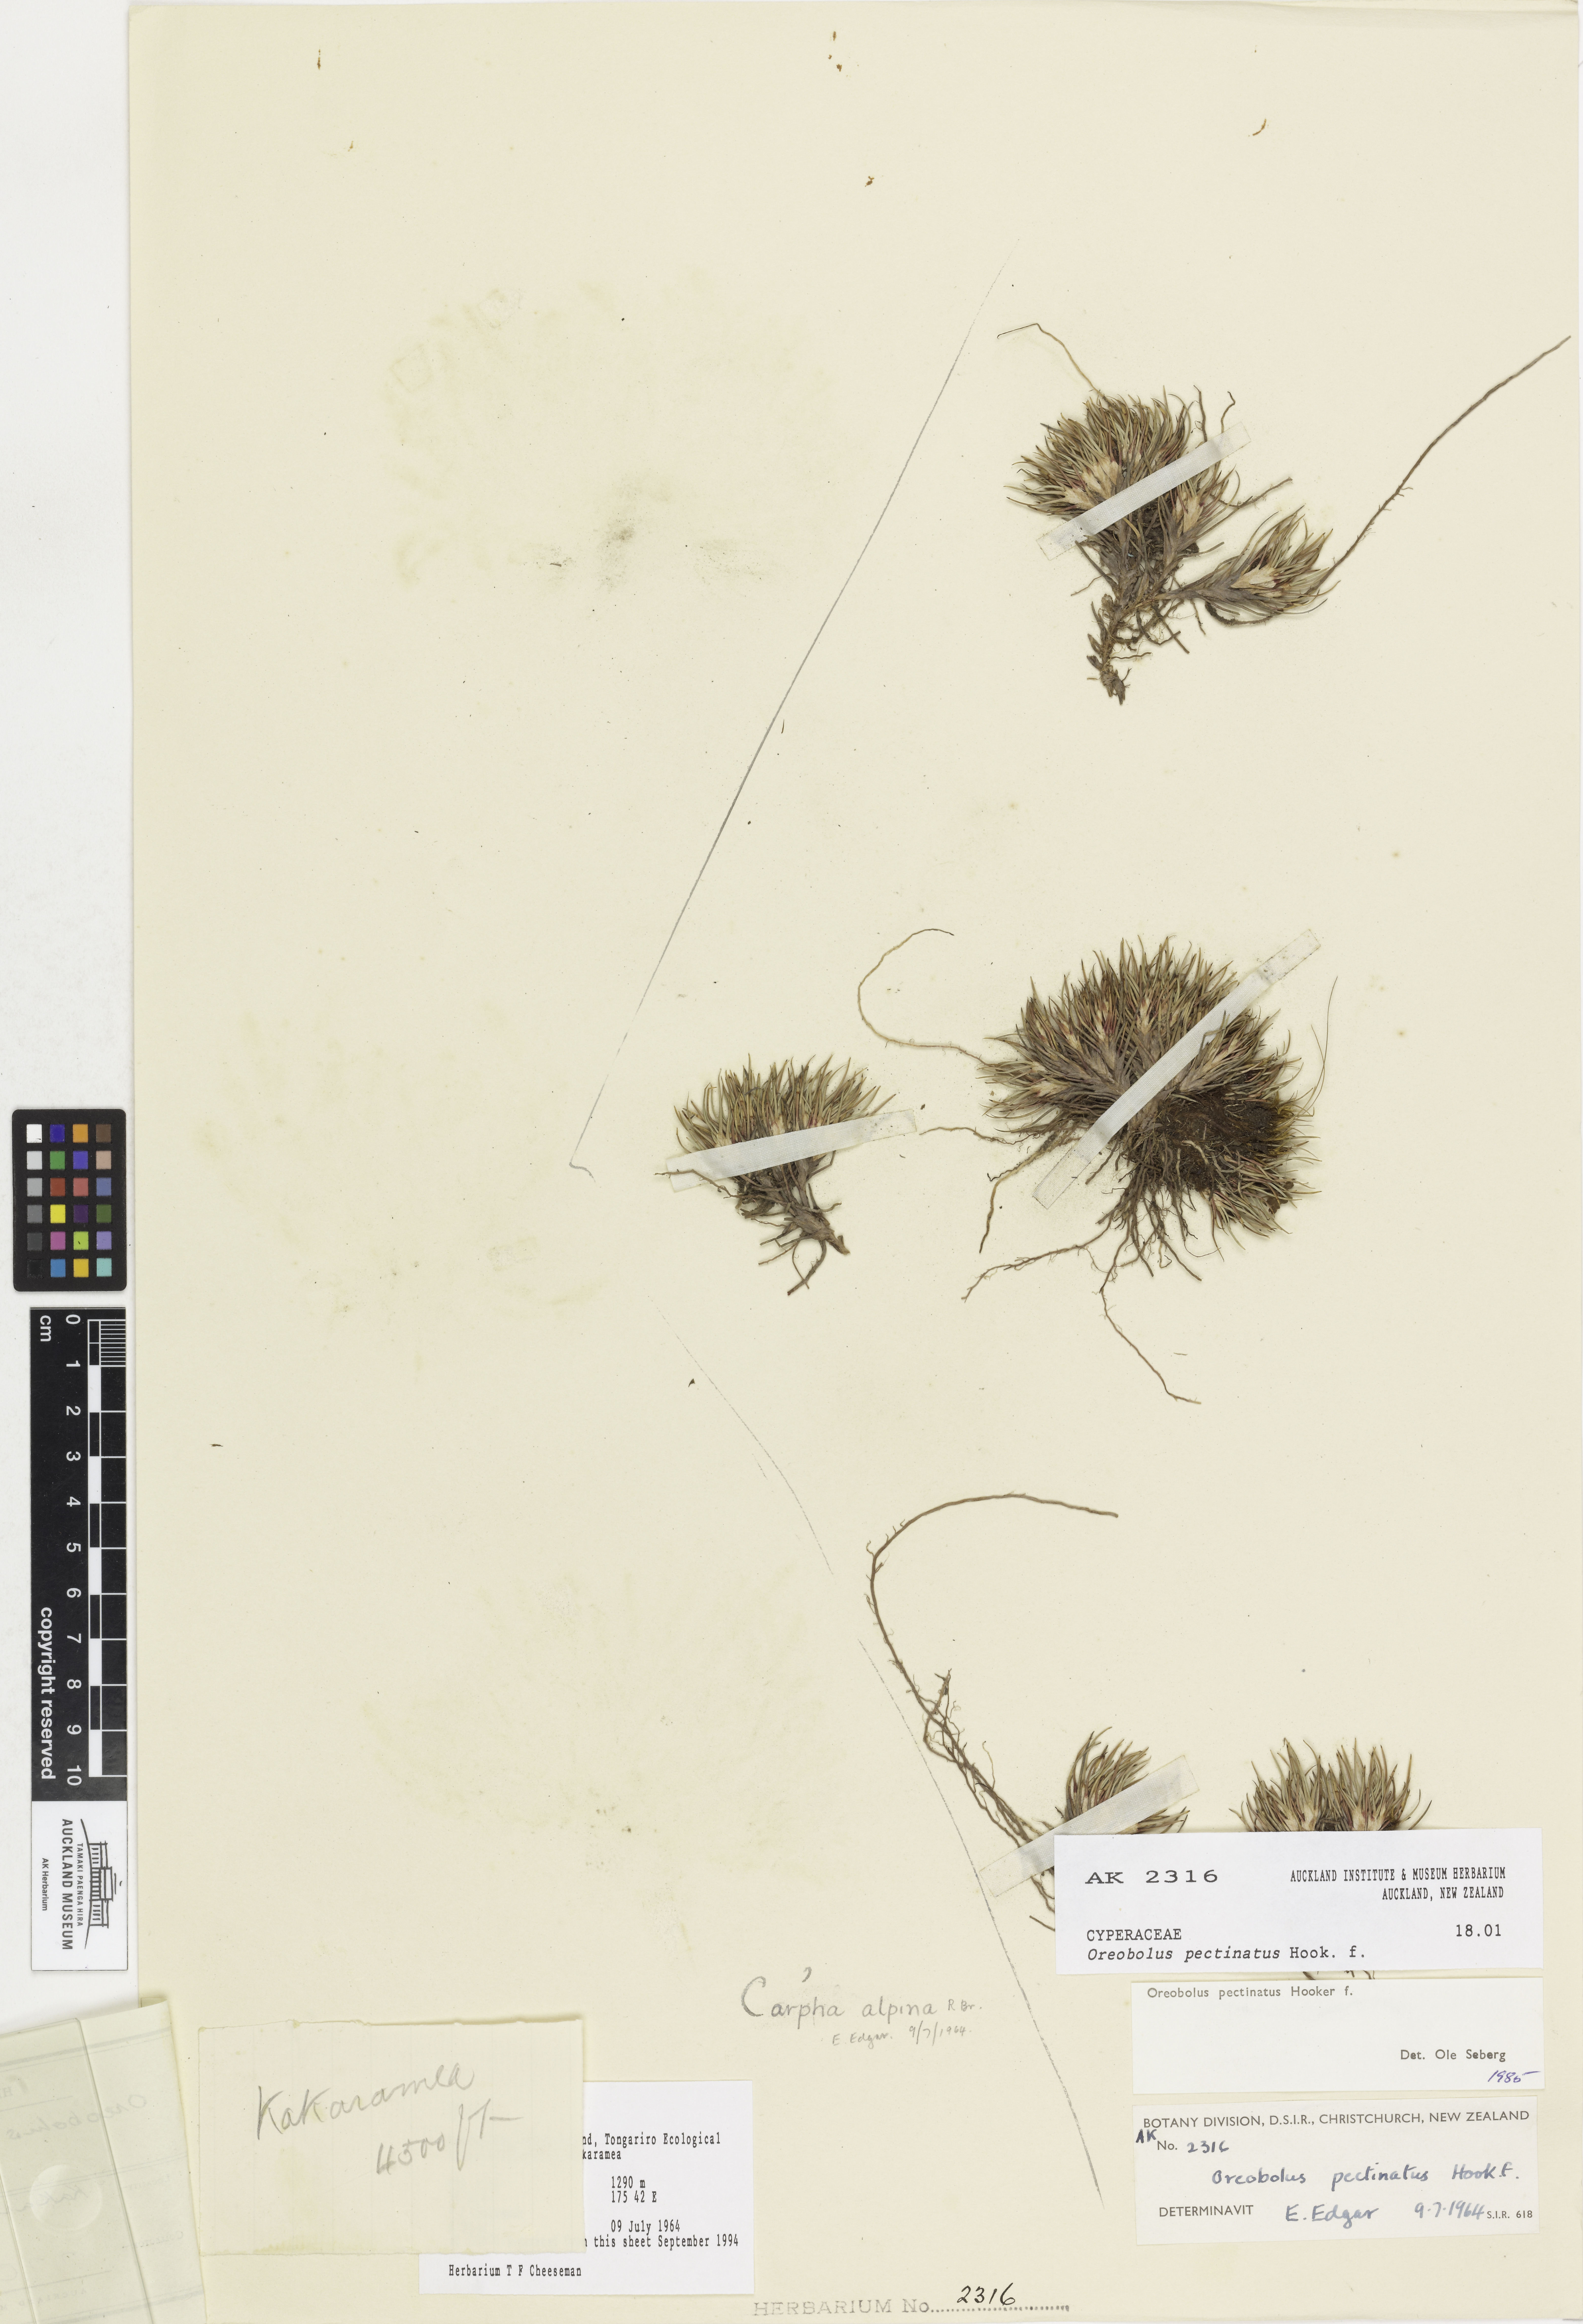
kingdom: Plantae
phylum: Tracheophyta
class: Liliopsida
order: Poales
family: Cyperaceae
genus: Oreobolus
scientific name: Oreobolus pectinatus
